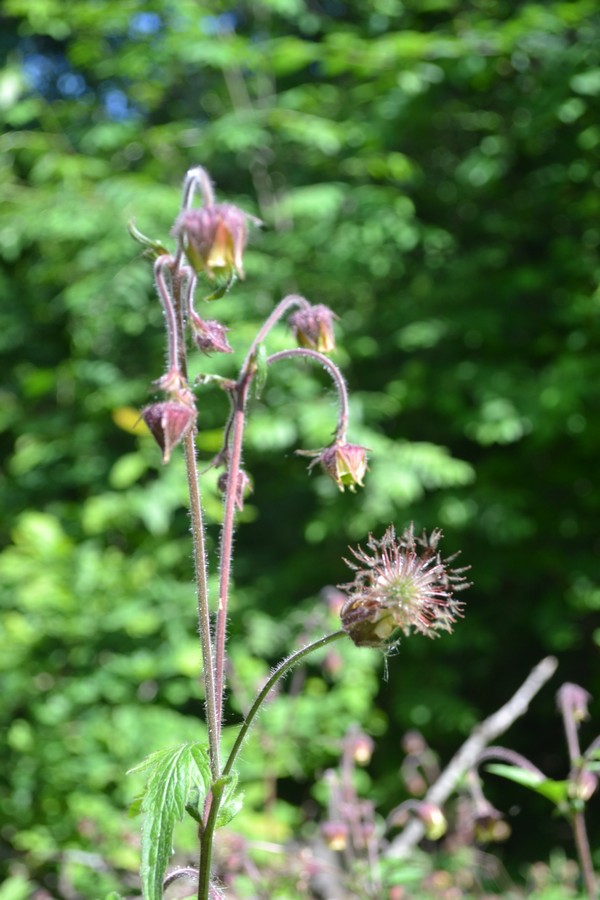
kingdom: Plantae
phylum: Tracheophyta
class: Magnoliopsida
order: Rosales
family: Rosaceae
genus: Geum
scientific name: Geum rivale
